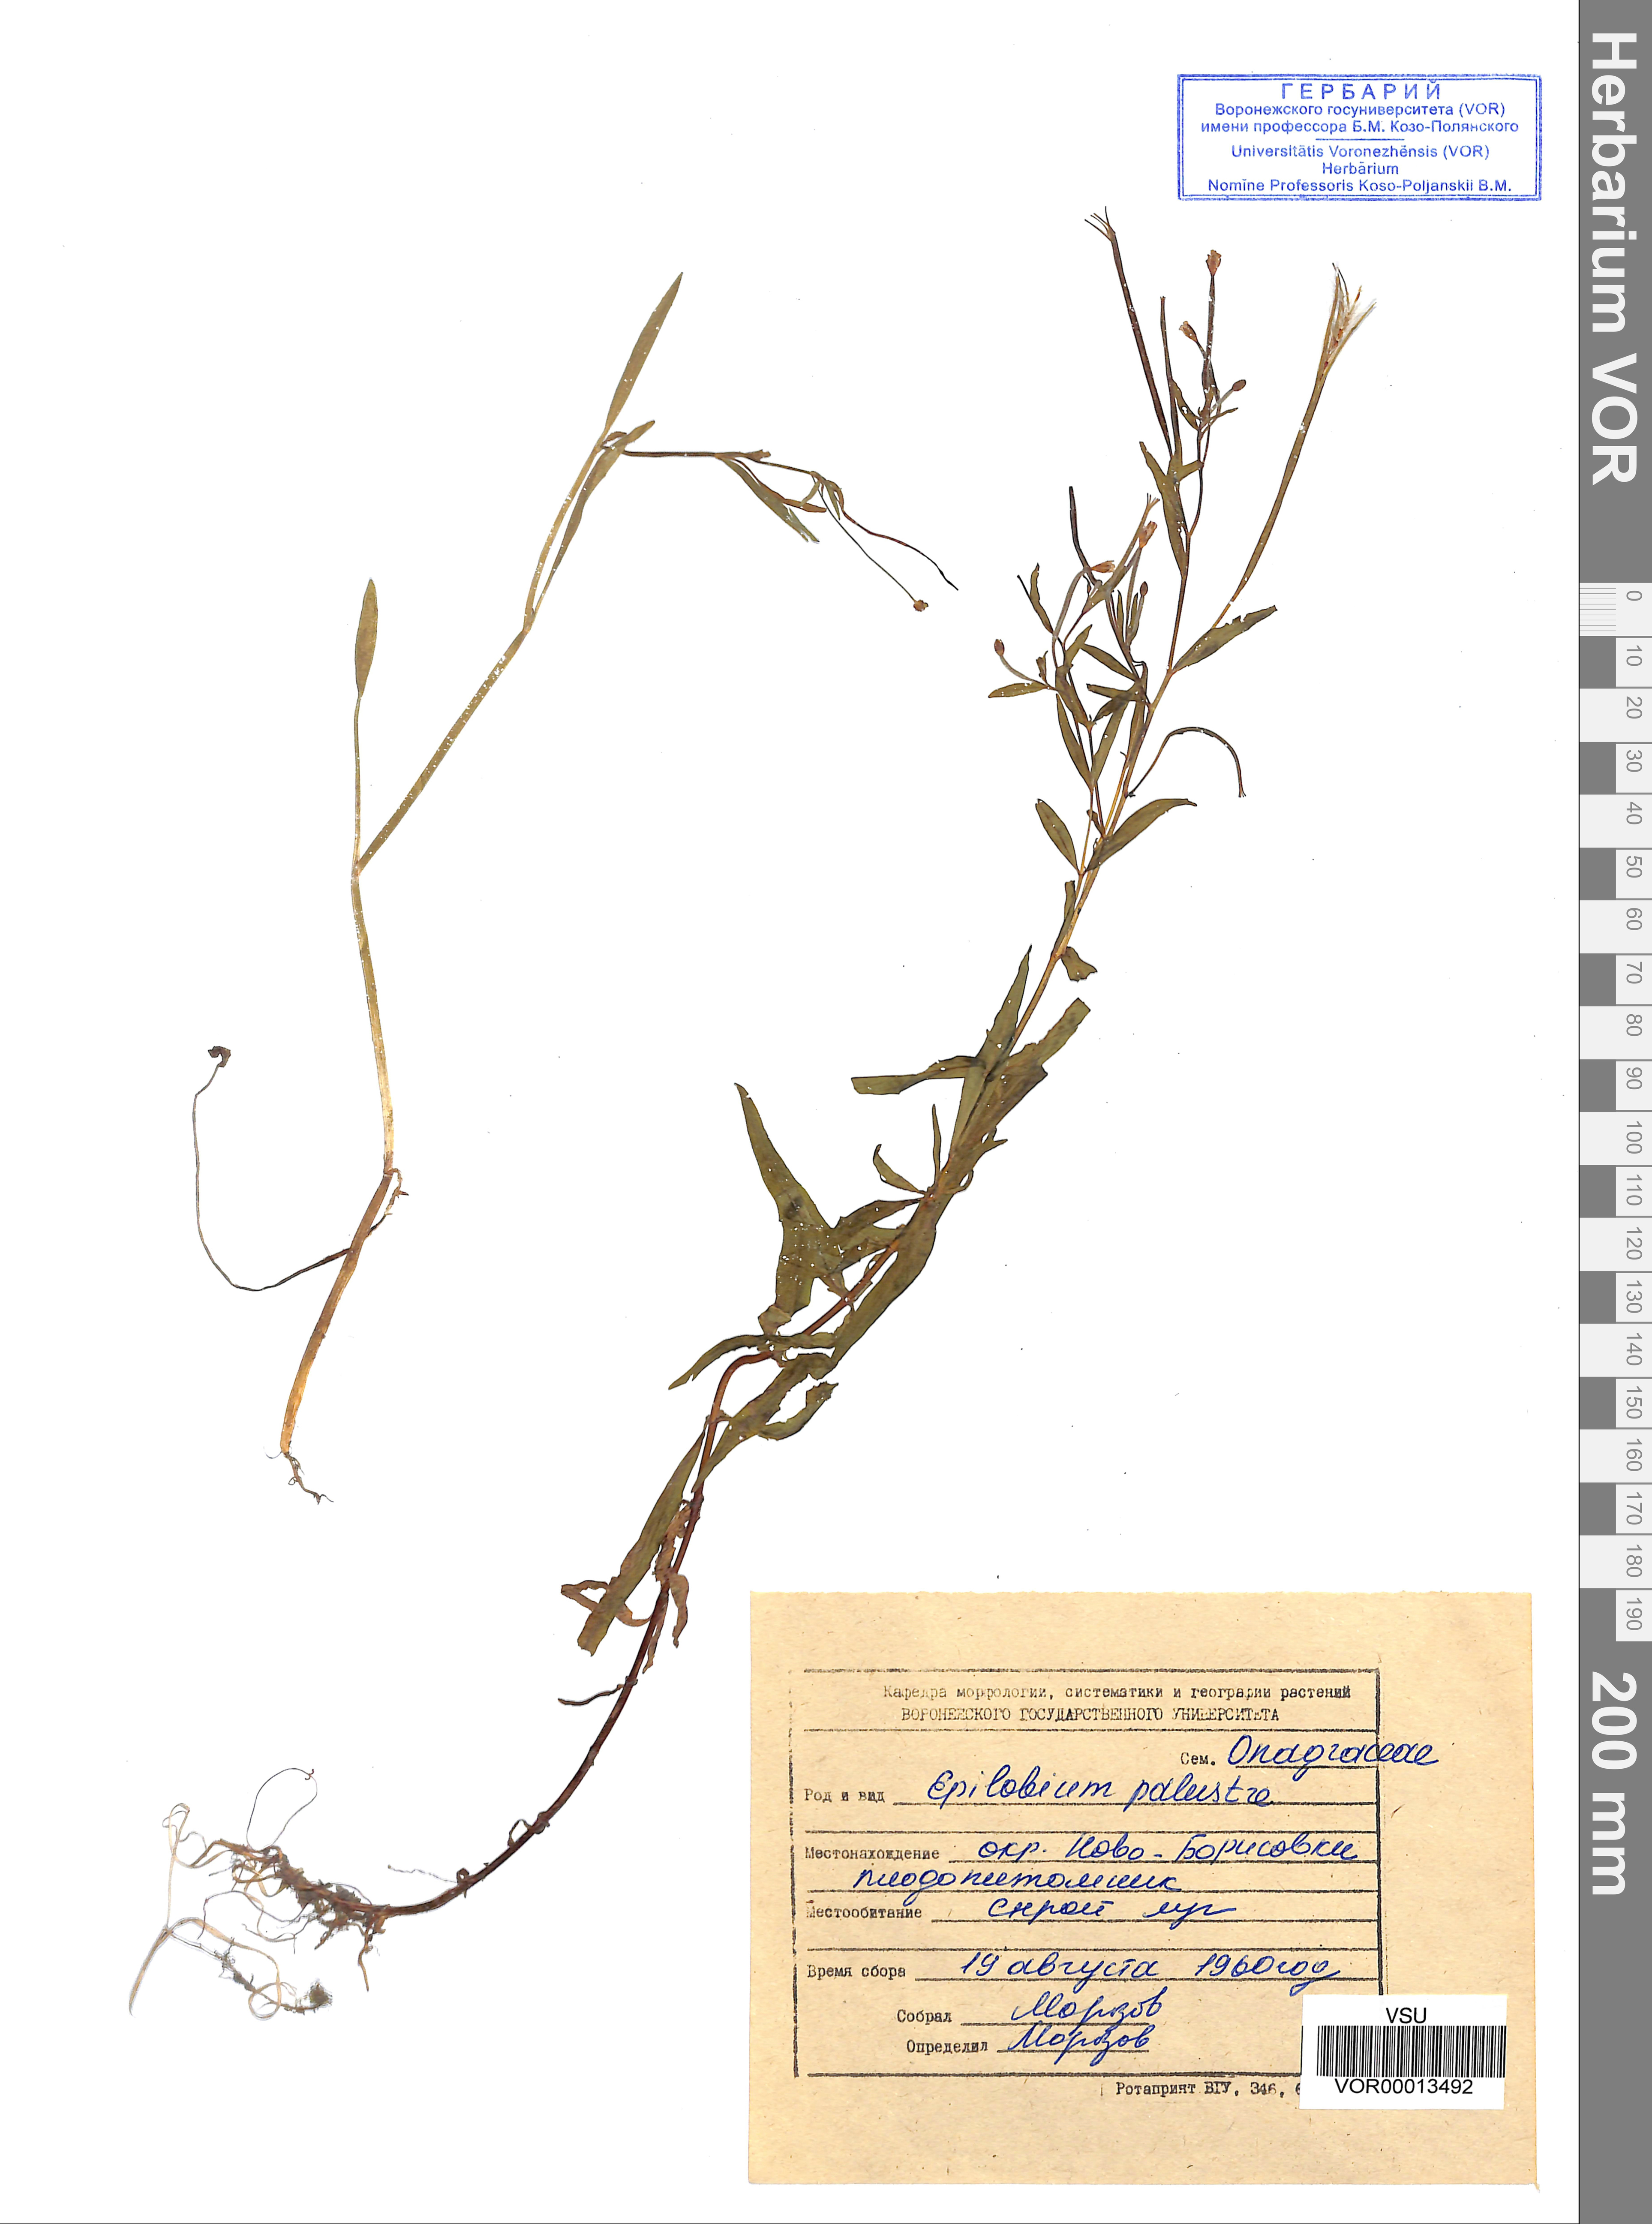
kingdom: Plantae
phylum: Tracheophyta
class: Magnoliopsida
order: Myrtales
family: Onagraceae
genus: Epilobium
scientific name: Epilobium palustre
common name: Marsh willowherb
